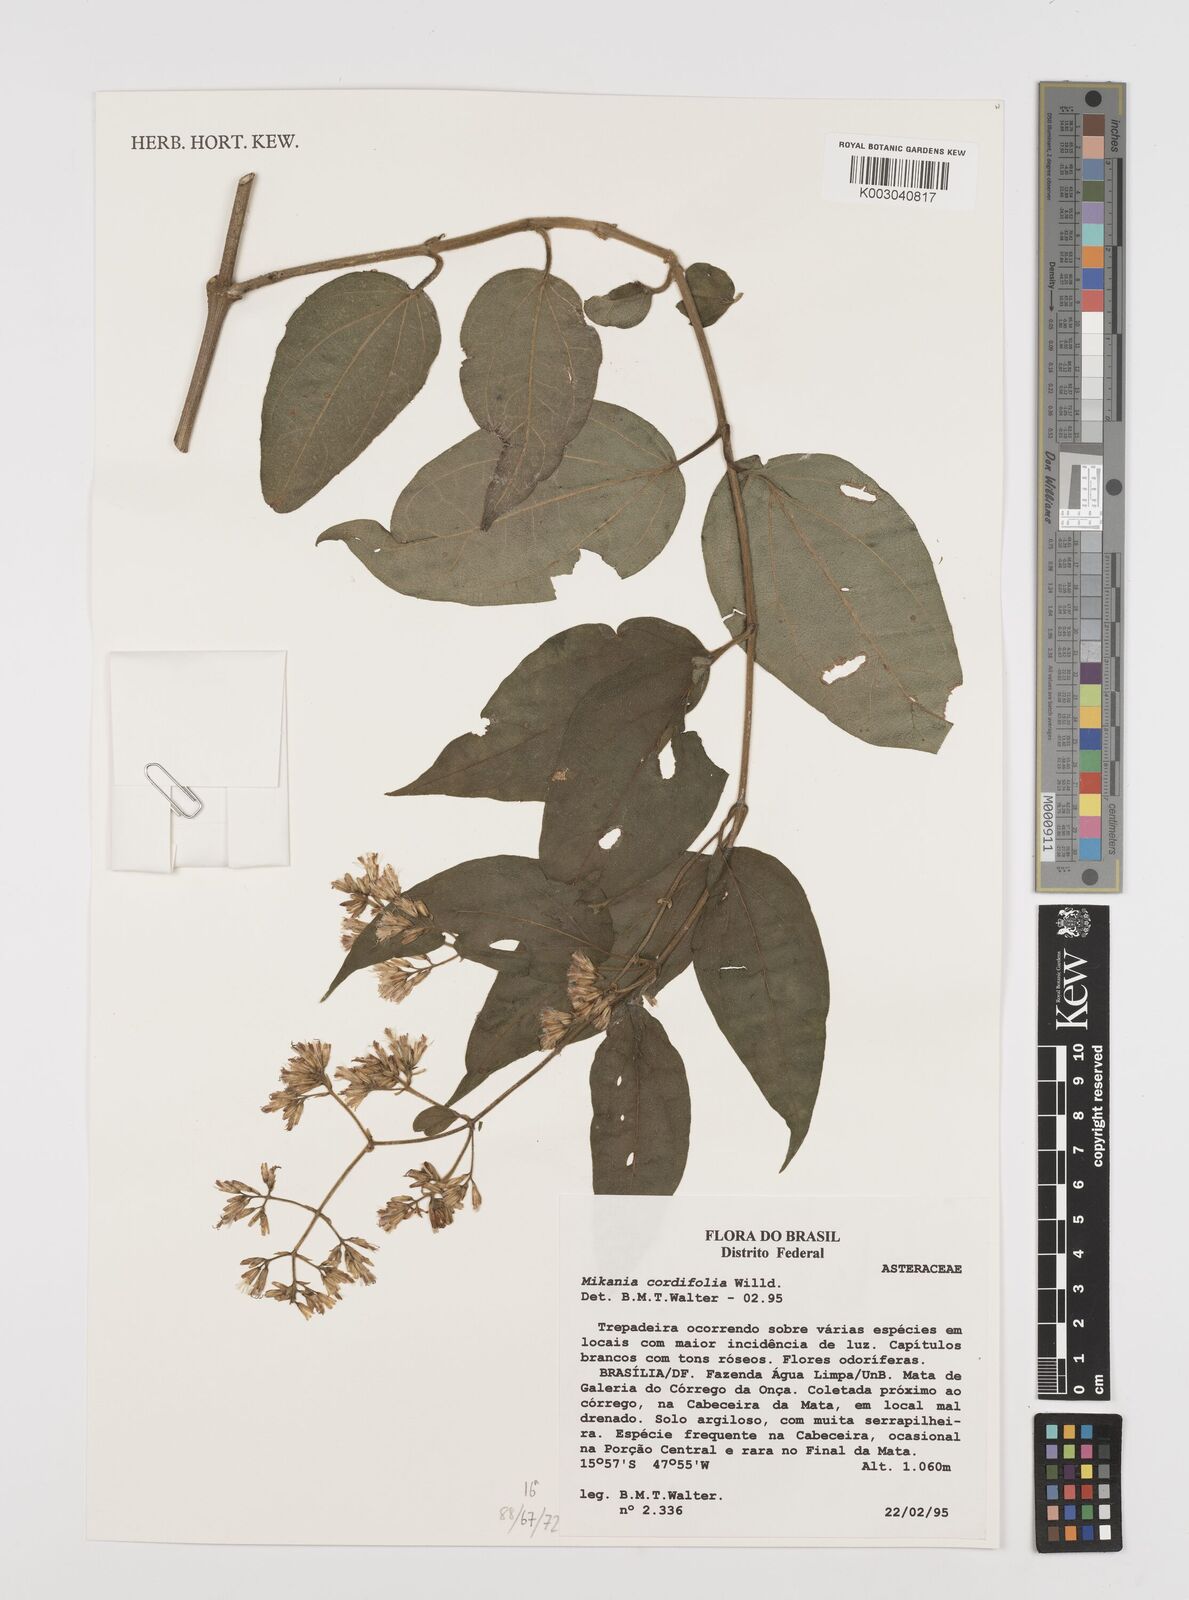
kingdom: Plantae
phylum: Tracheophyta
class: Magnoliopsida
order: Asterales
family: Asteraceae
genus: Mikania
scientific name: Mikania cordifolia
